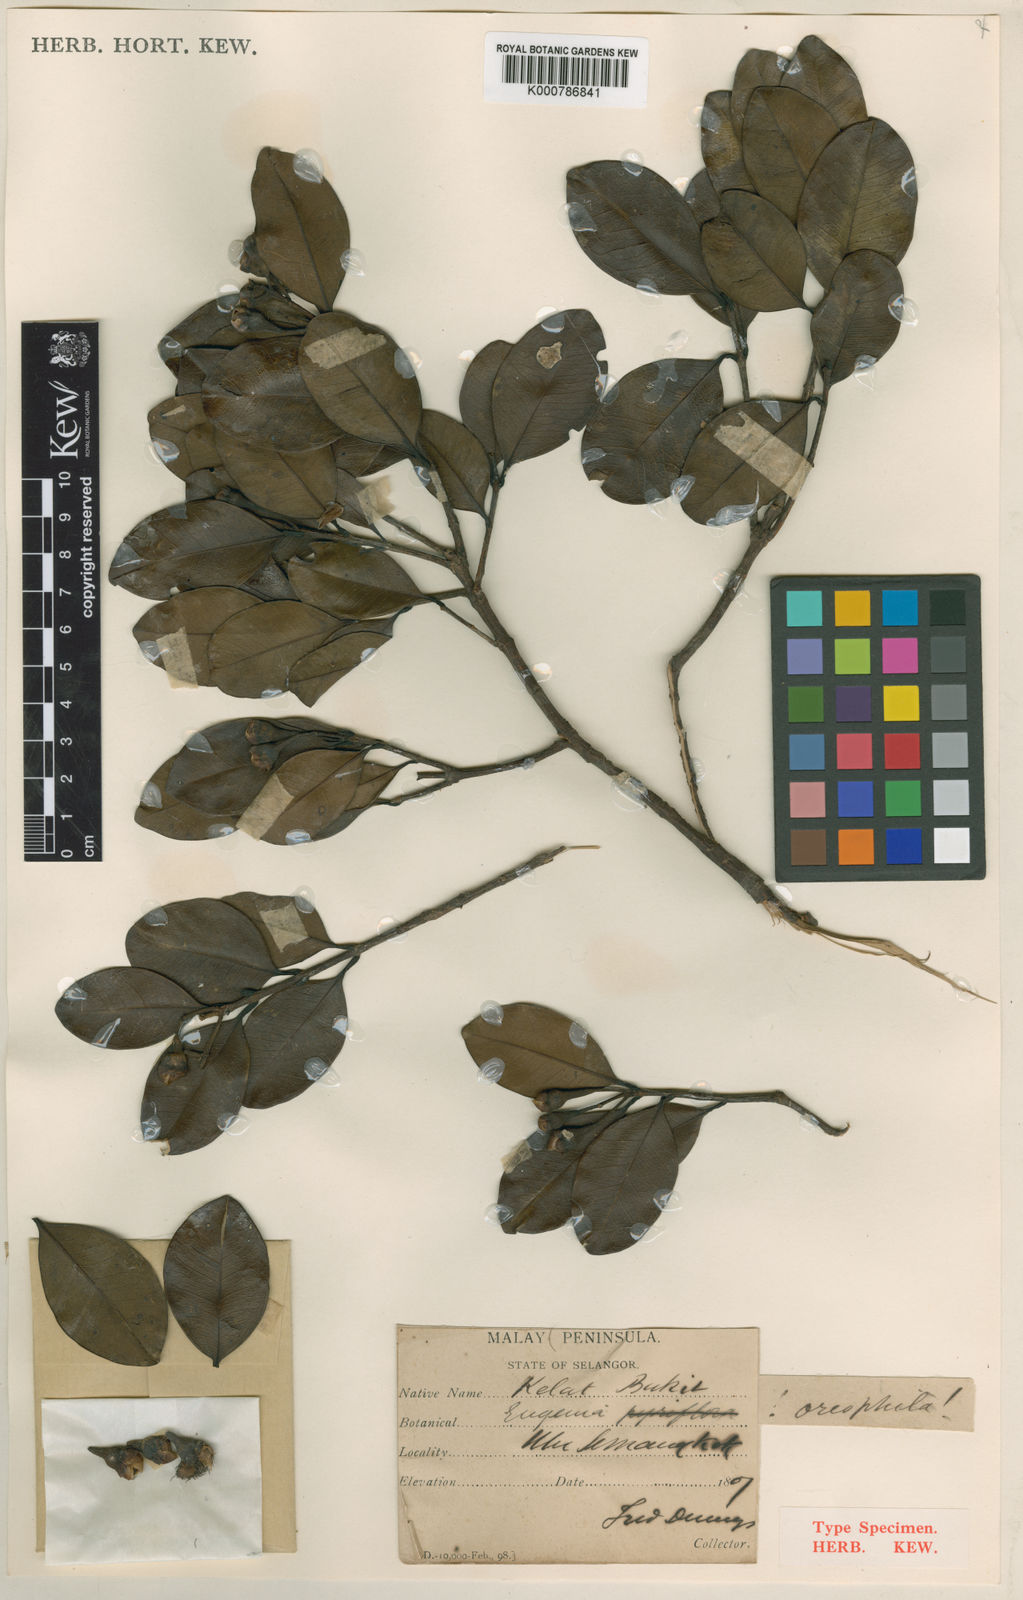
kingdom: Plantae
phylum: Tracheophyta
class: Magnoliopsida
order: Myrtales
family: Myrtaceae
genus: Syzygium
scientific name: Syzygium oreophilum
